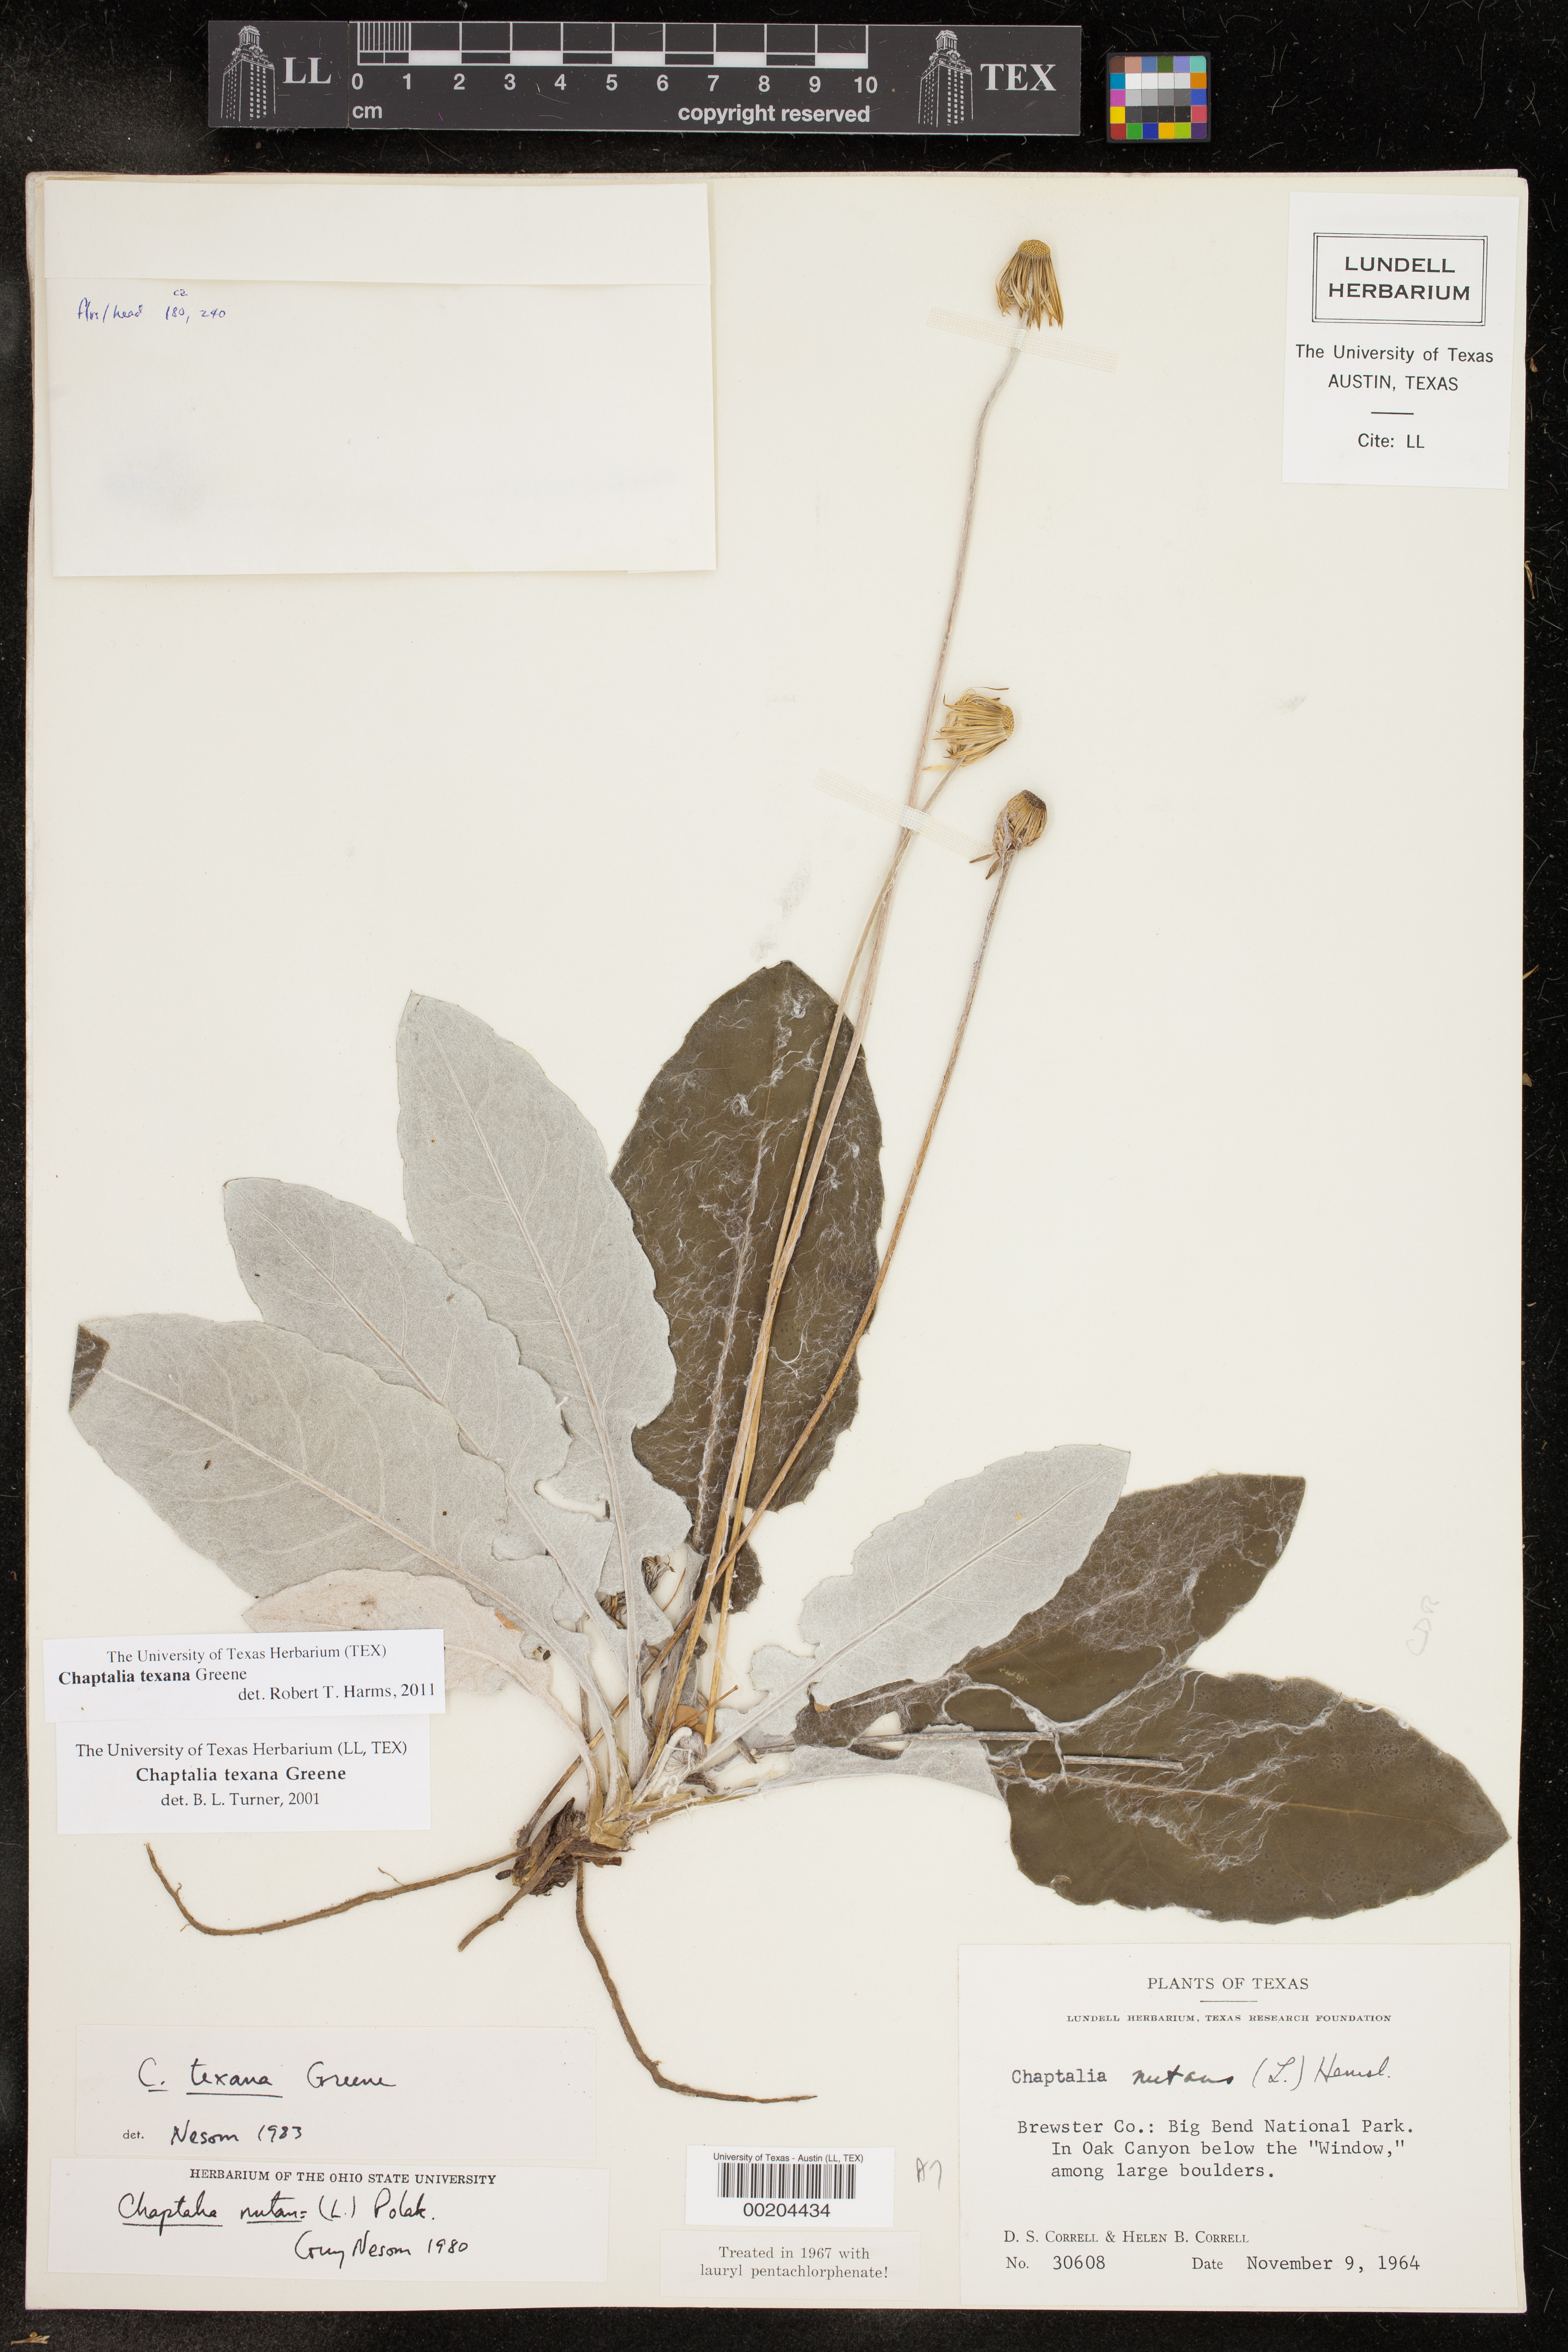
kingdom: Plantae
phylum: Tracheophyta
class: Magnoliopsida
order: Asterales
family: Asteraceae
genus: Chaptalia
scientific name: Chaptalia texana
